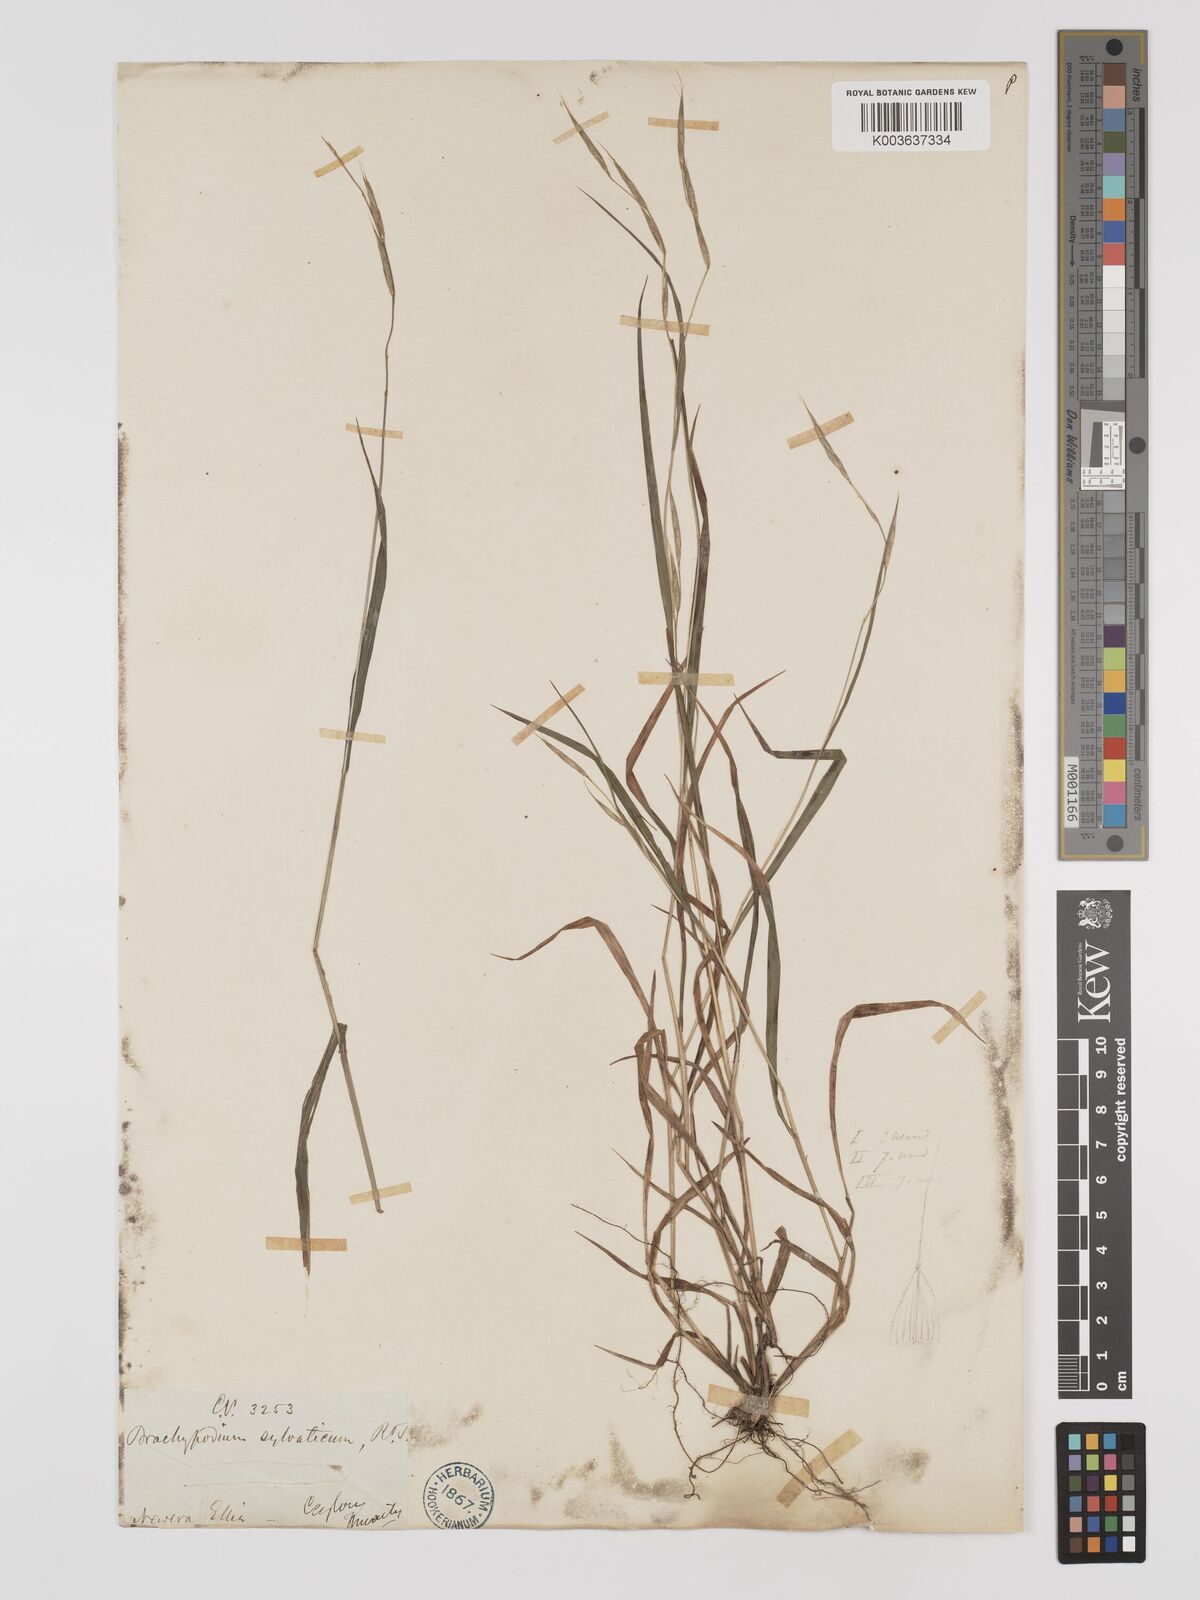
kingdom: Plantae
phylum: Tracheophyta
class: Liliopsida
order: Poales
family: Poaceae
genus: Brachypodium
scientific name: Brachypodium sylvaticum
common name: False-brome
